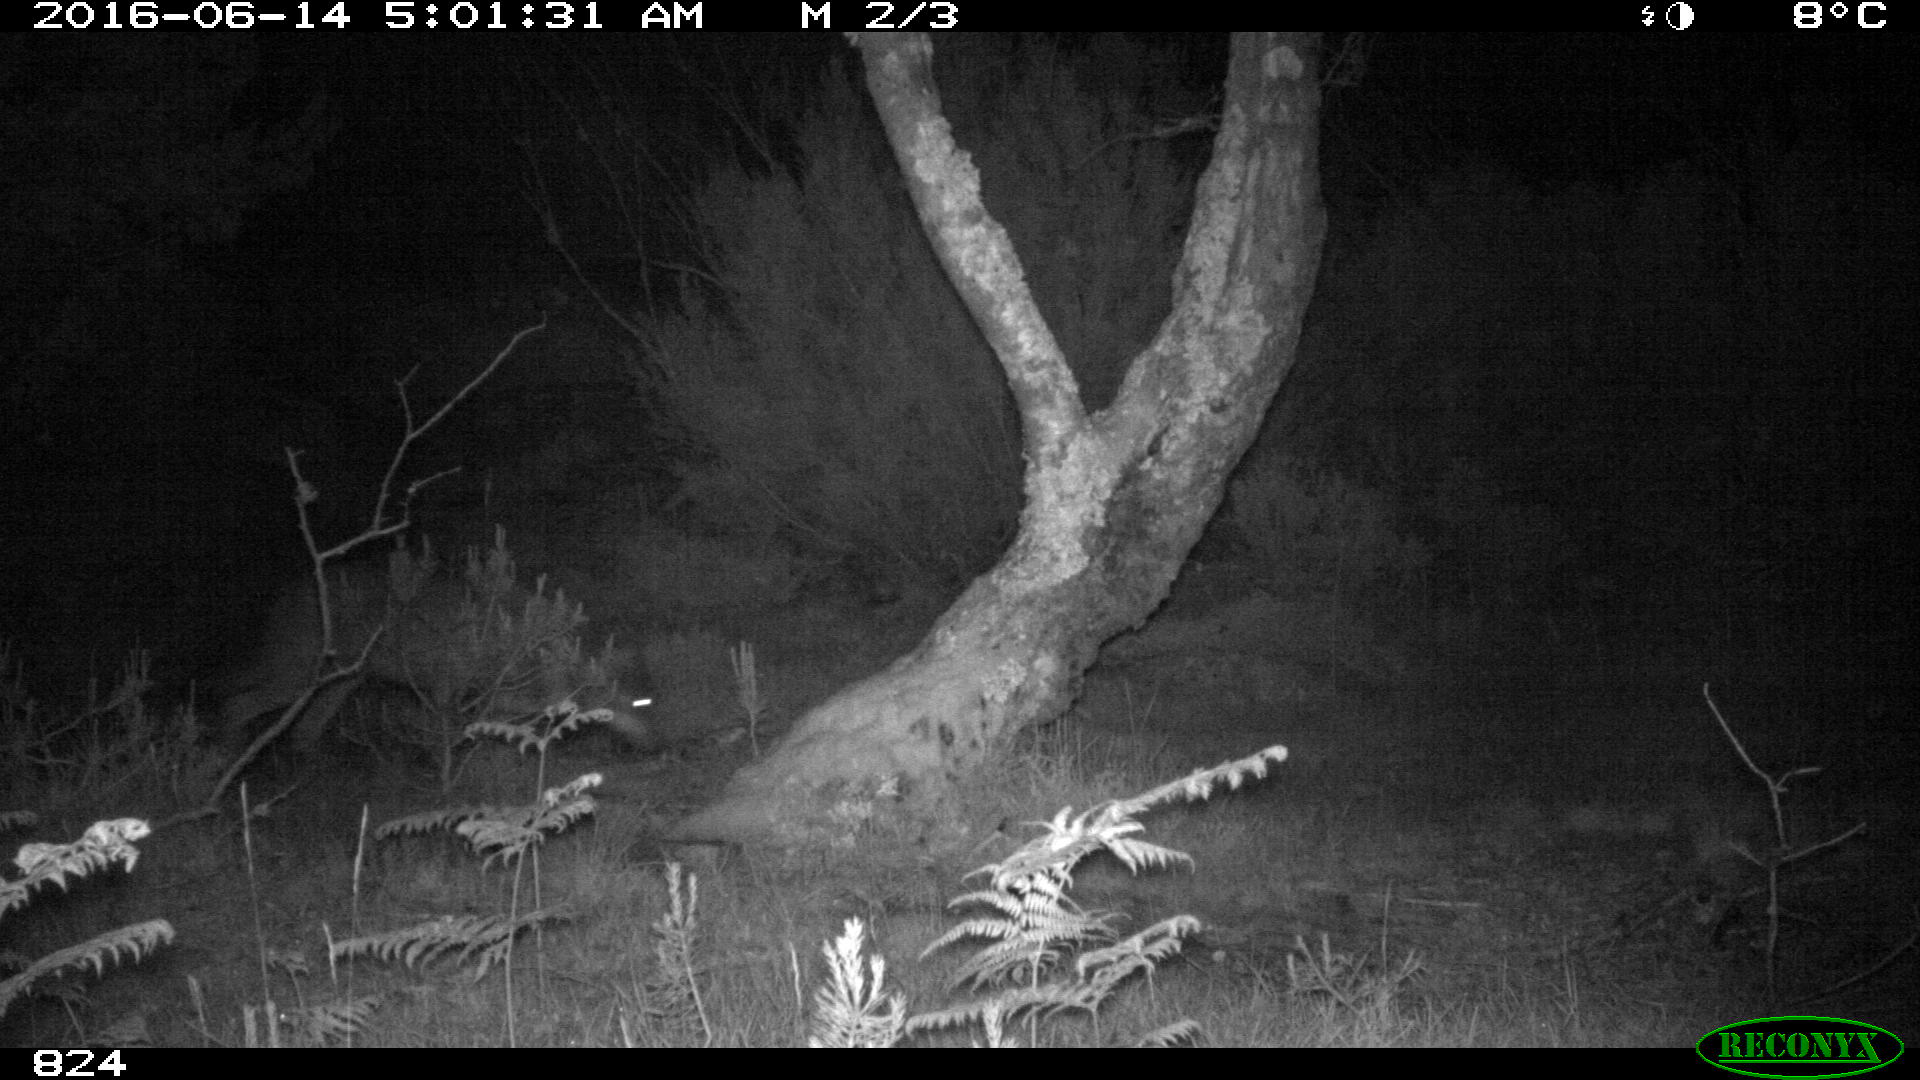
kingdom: Animalia
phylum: Chordata
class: Mammalia
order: Carnivora
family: Canidae
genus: Canis
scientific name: Canis lupus
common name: Gray wolf
